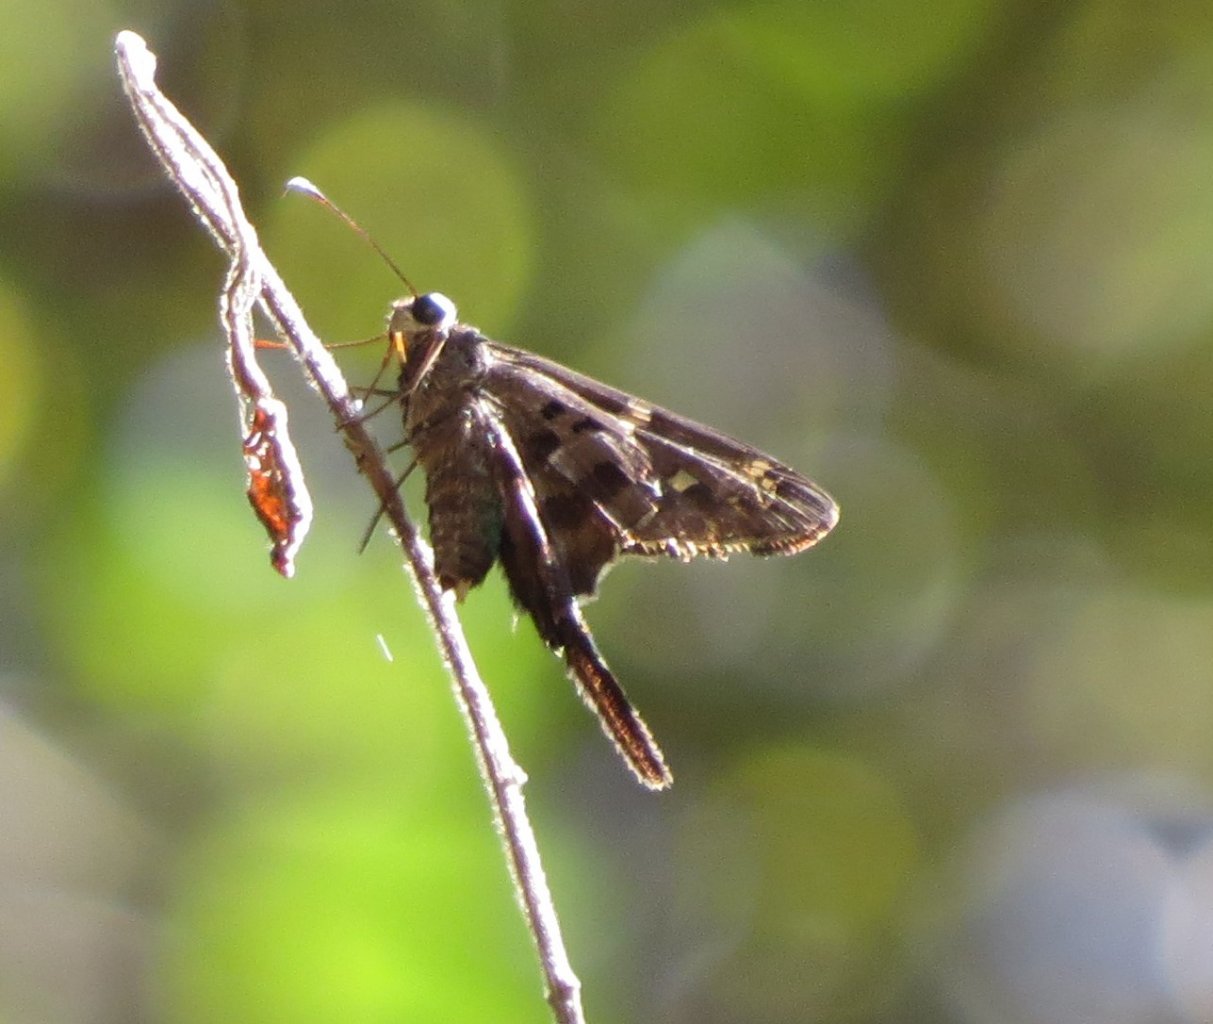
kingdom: Animalia
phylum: Arthropoda
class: Insecta
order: Lepidoptera
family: Hesperiidae
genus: Urbanus
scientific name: Urbanus proteus
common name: Long-tailed Skipper
